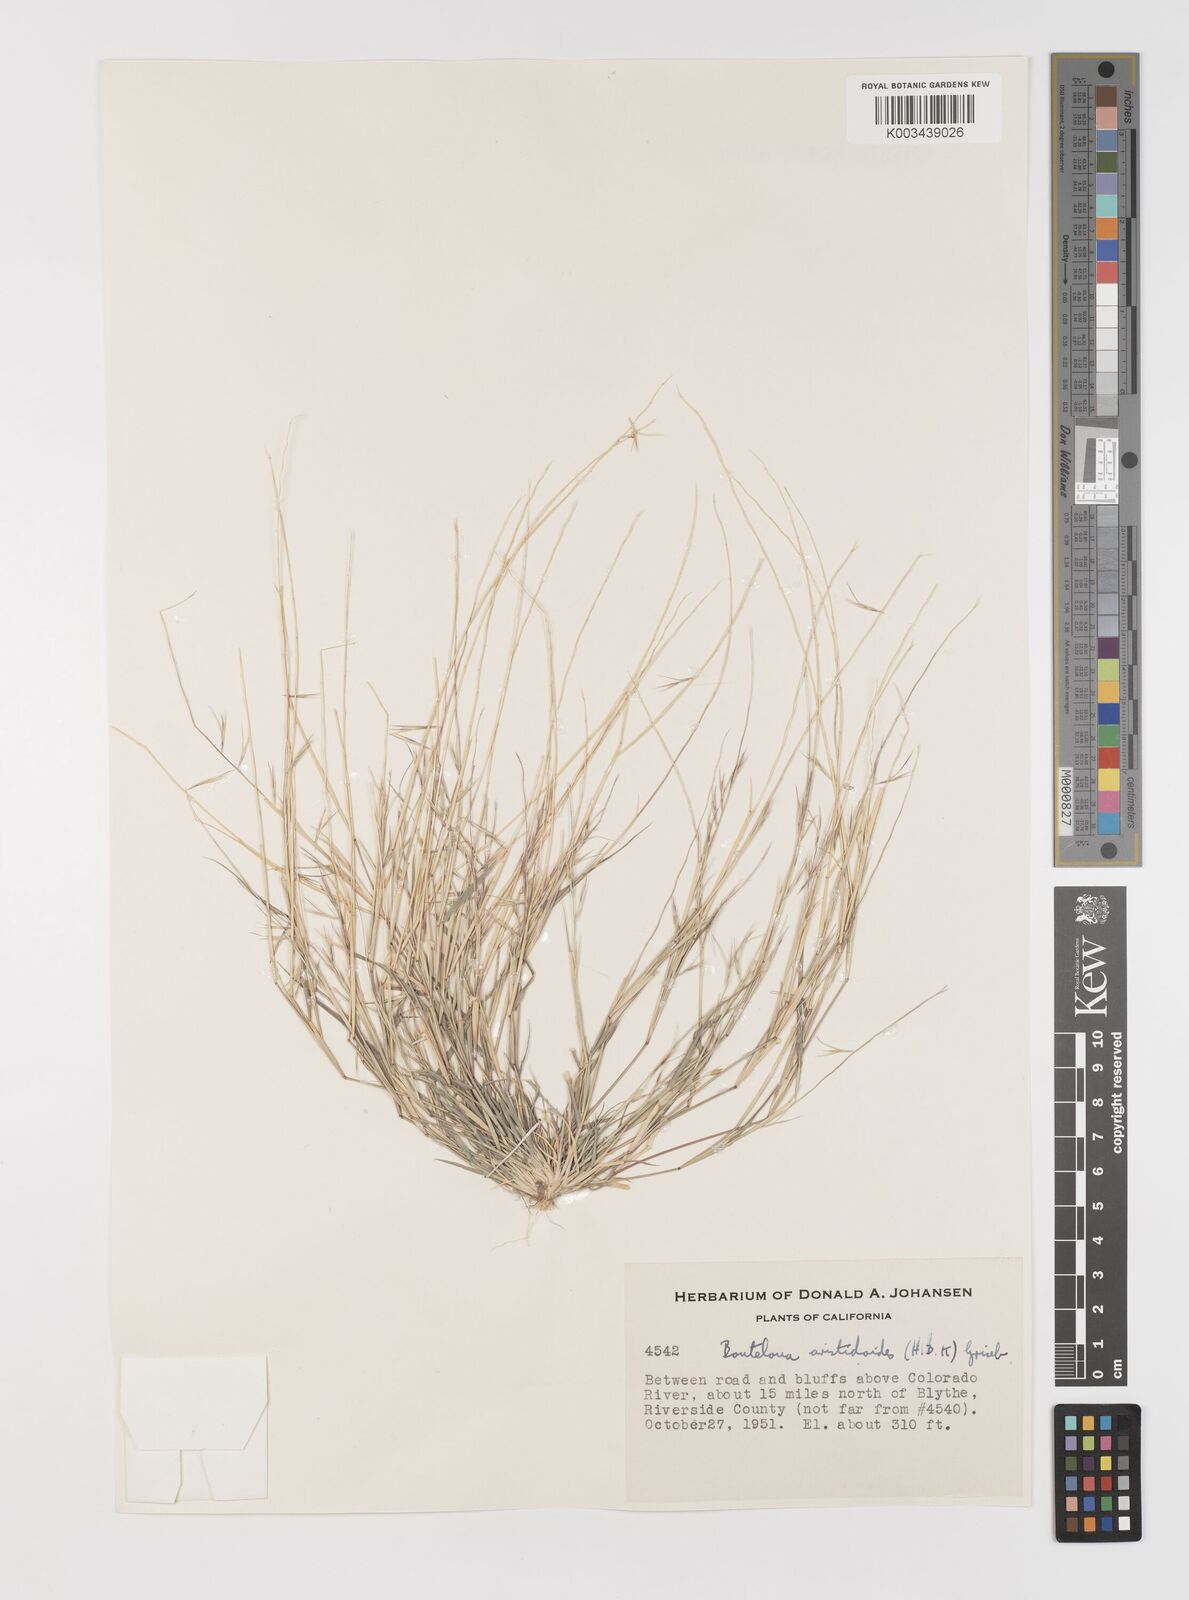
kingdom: Plantae
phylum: Tracheophyta
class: Liliopsida
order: Poales
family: Poaceae
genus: Bouteloua
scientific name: Bouteloua aristidoides
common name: Needle grama
